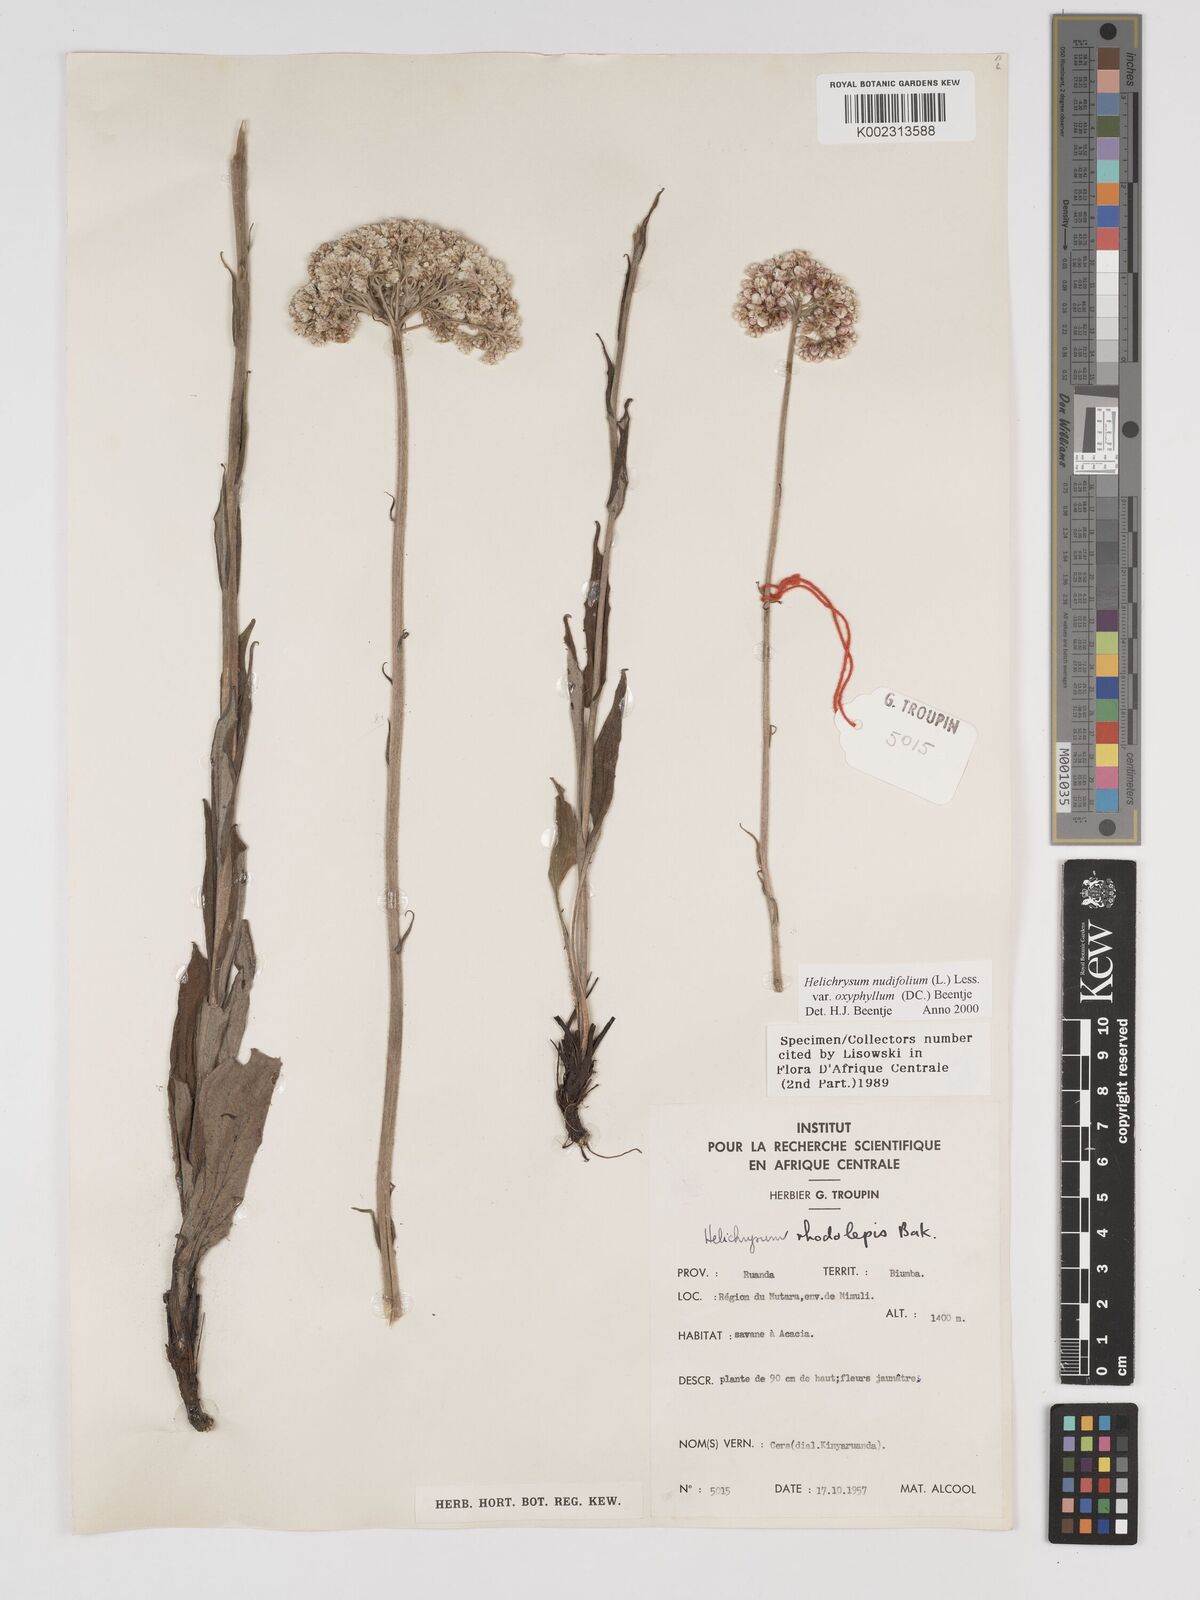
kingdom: Plantae
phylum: Tracheophyta
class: Magnoliopsida
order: Asterales
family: Asteraceae
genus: Helichrysum
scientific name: Helichrysum nudifolium
